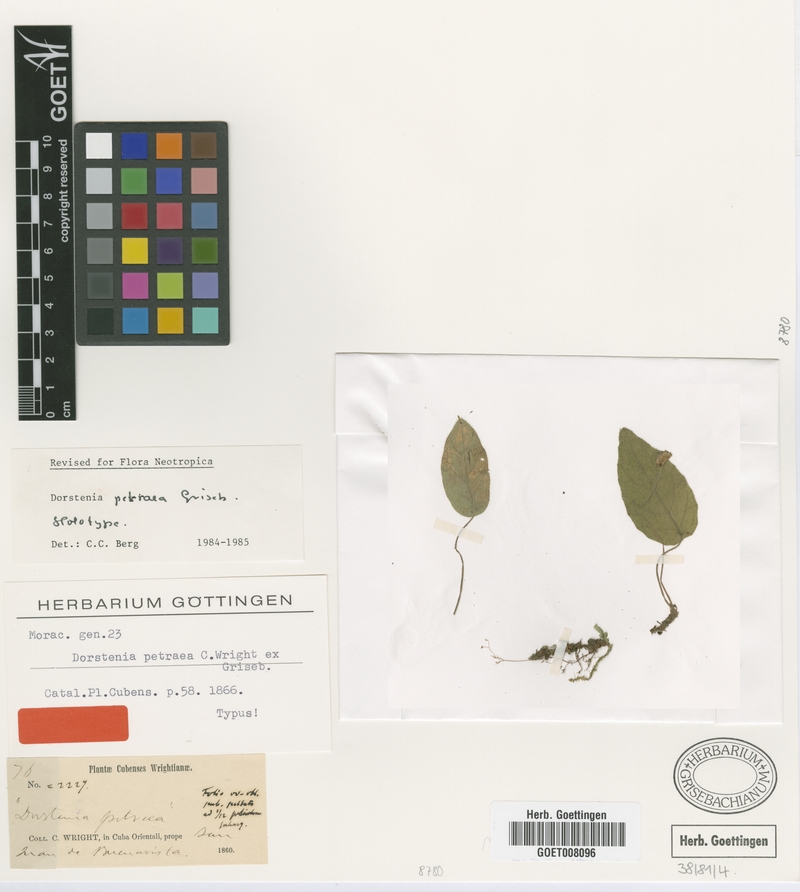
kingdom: Plantae
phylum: Tracheophyta
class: Magnoliopsida
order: Rosales
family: Moraceae
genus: Dorstenia
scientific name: Dorstenia petraea
